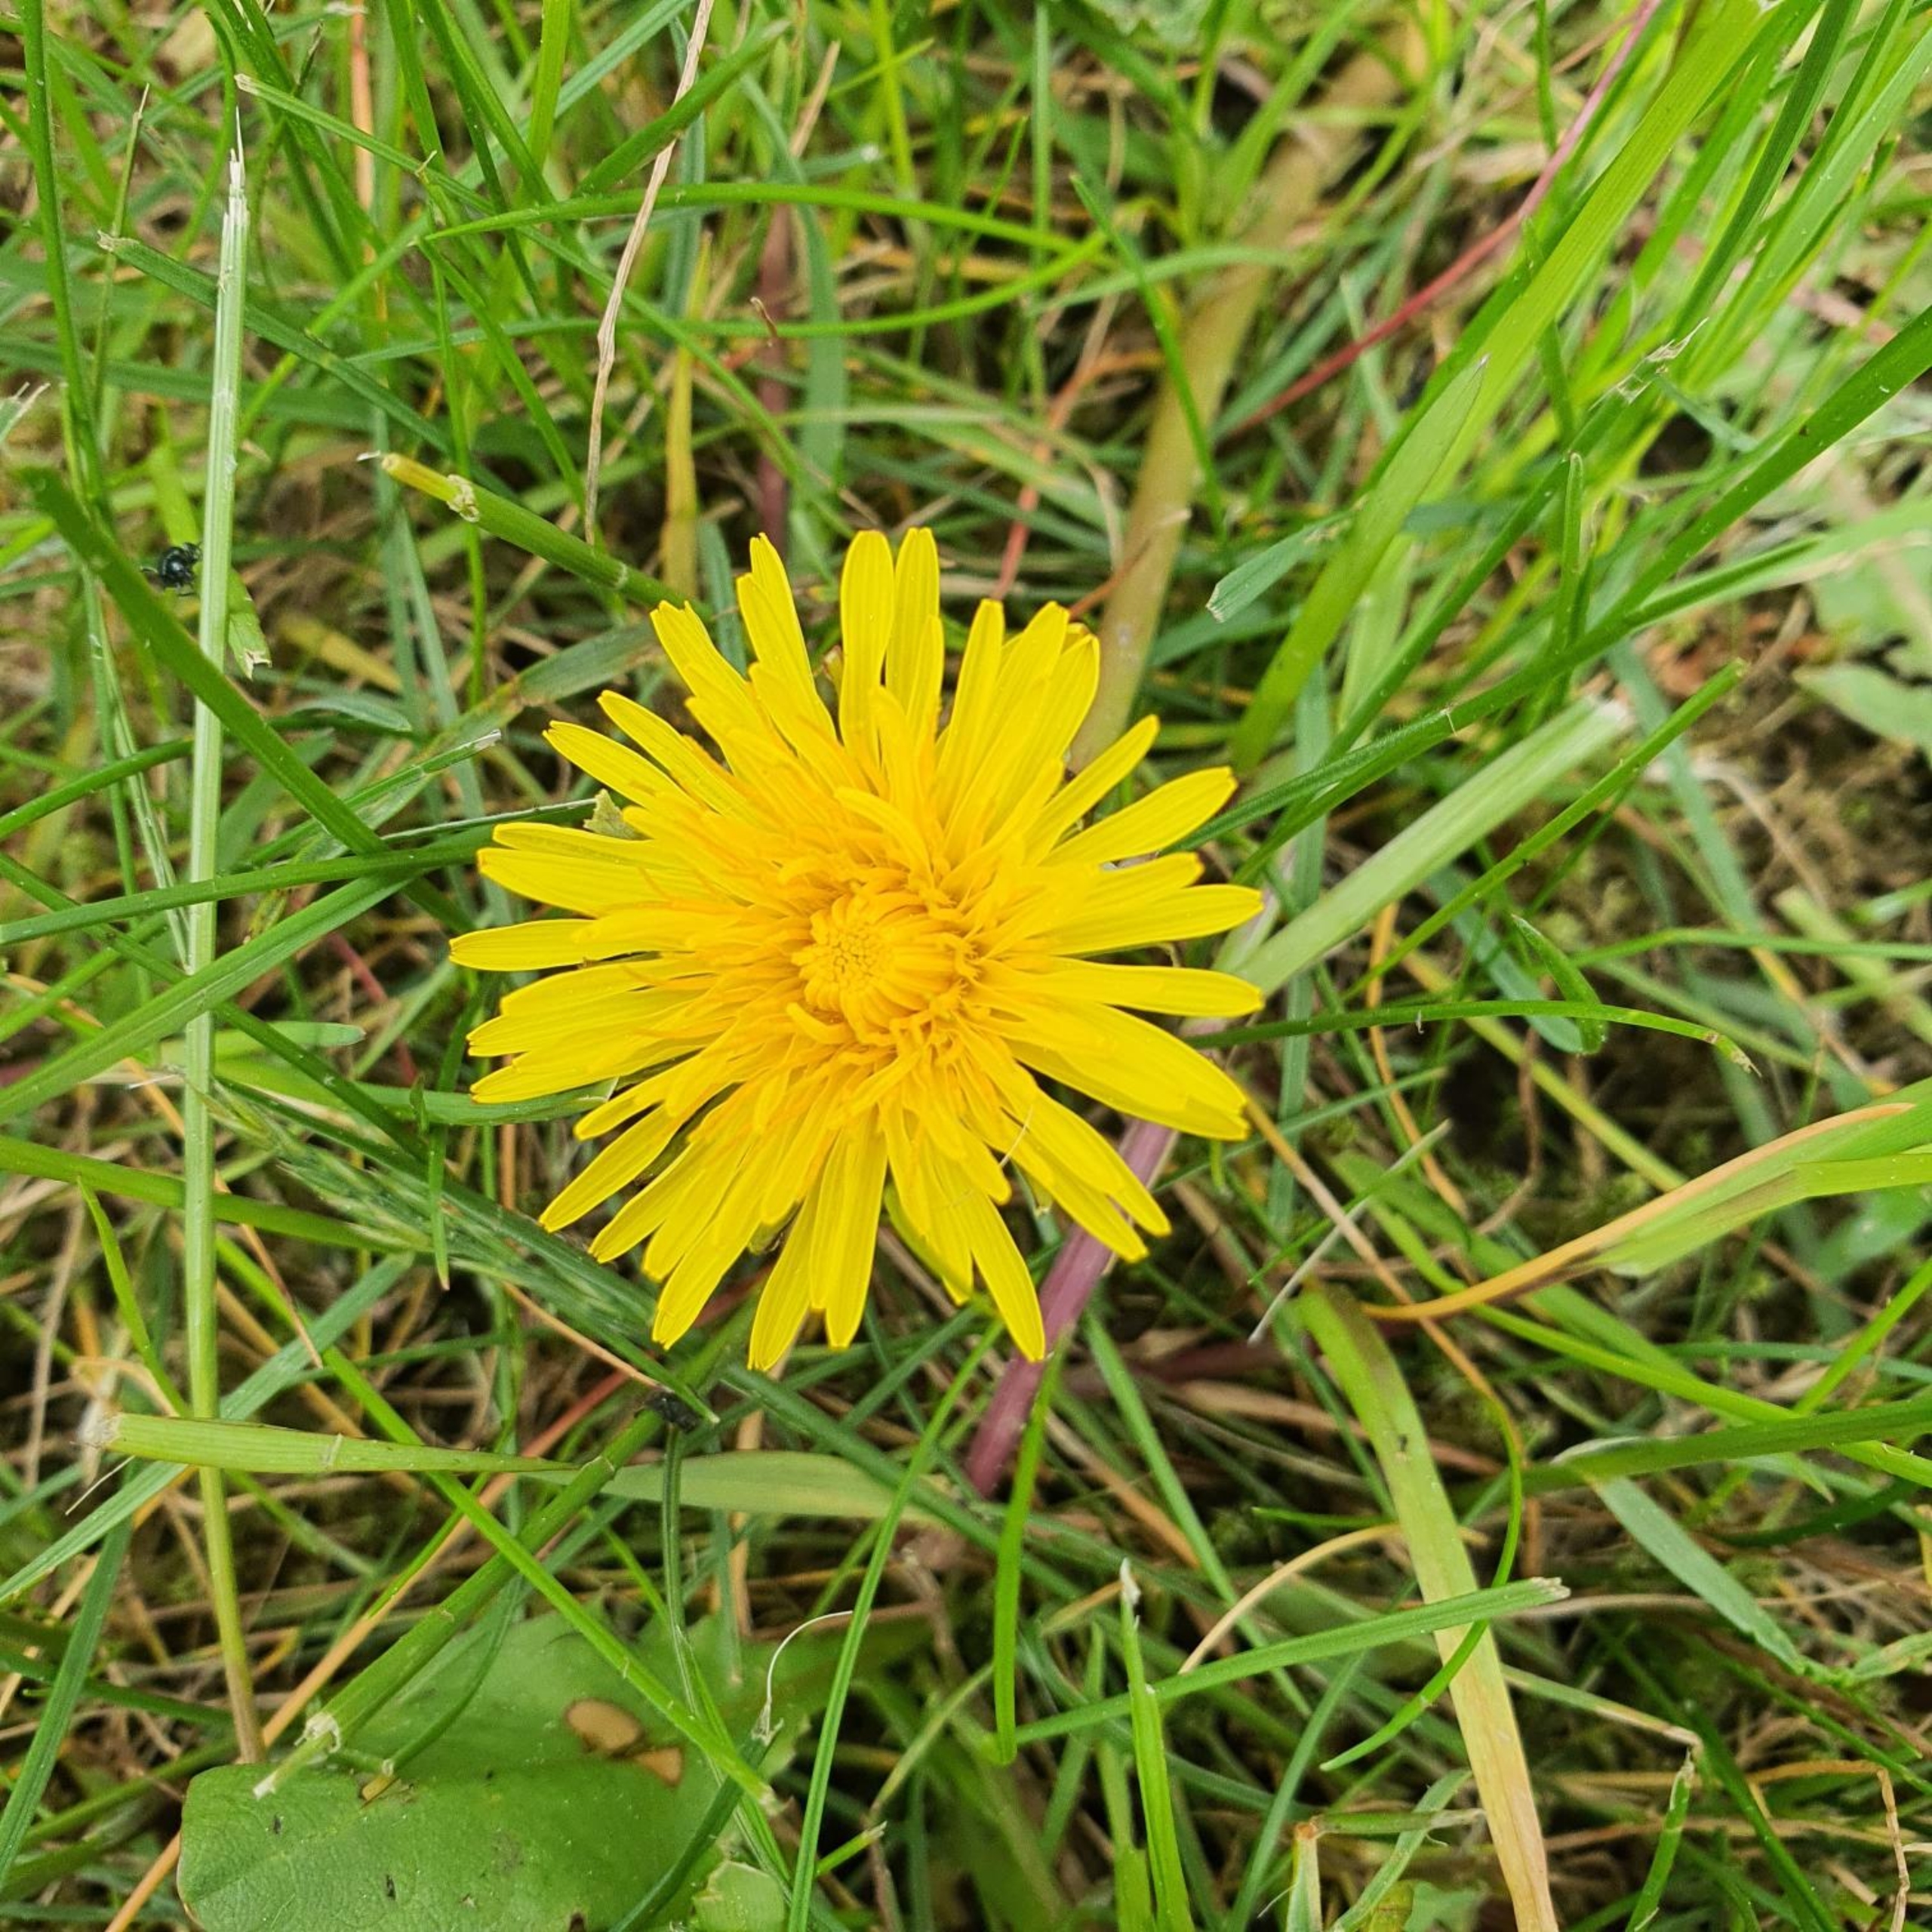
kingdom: Plantae
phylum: Tracheophyta
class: Magnoliopsida
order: Asterales
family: Asteraceae
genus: Taraxacum
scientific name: Taraxacum
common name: Mælkebøtteslægten
